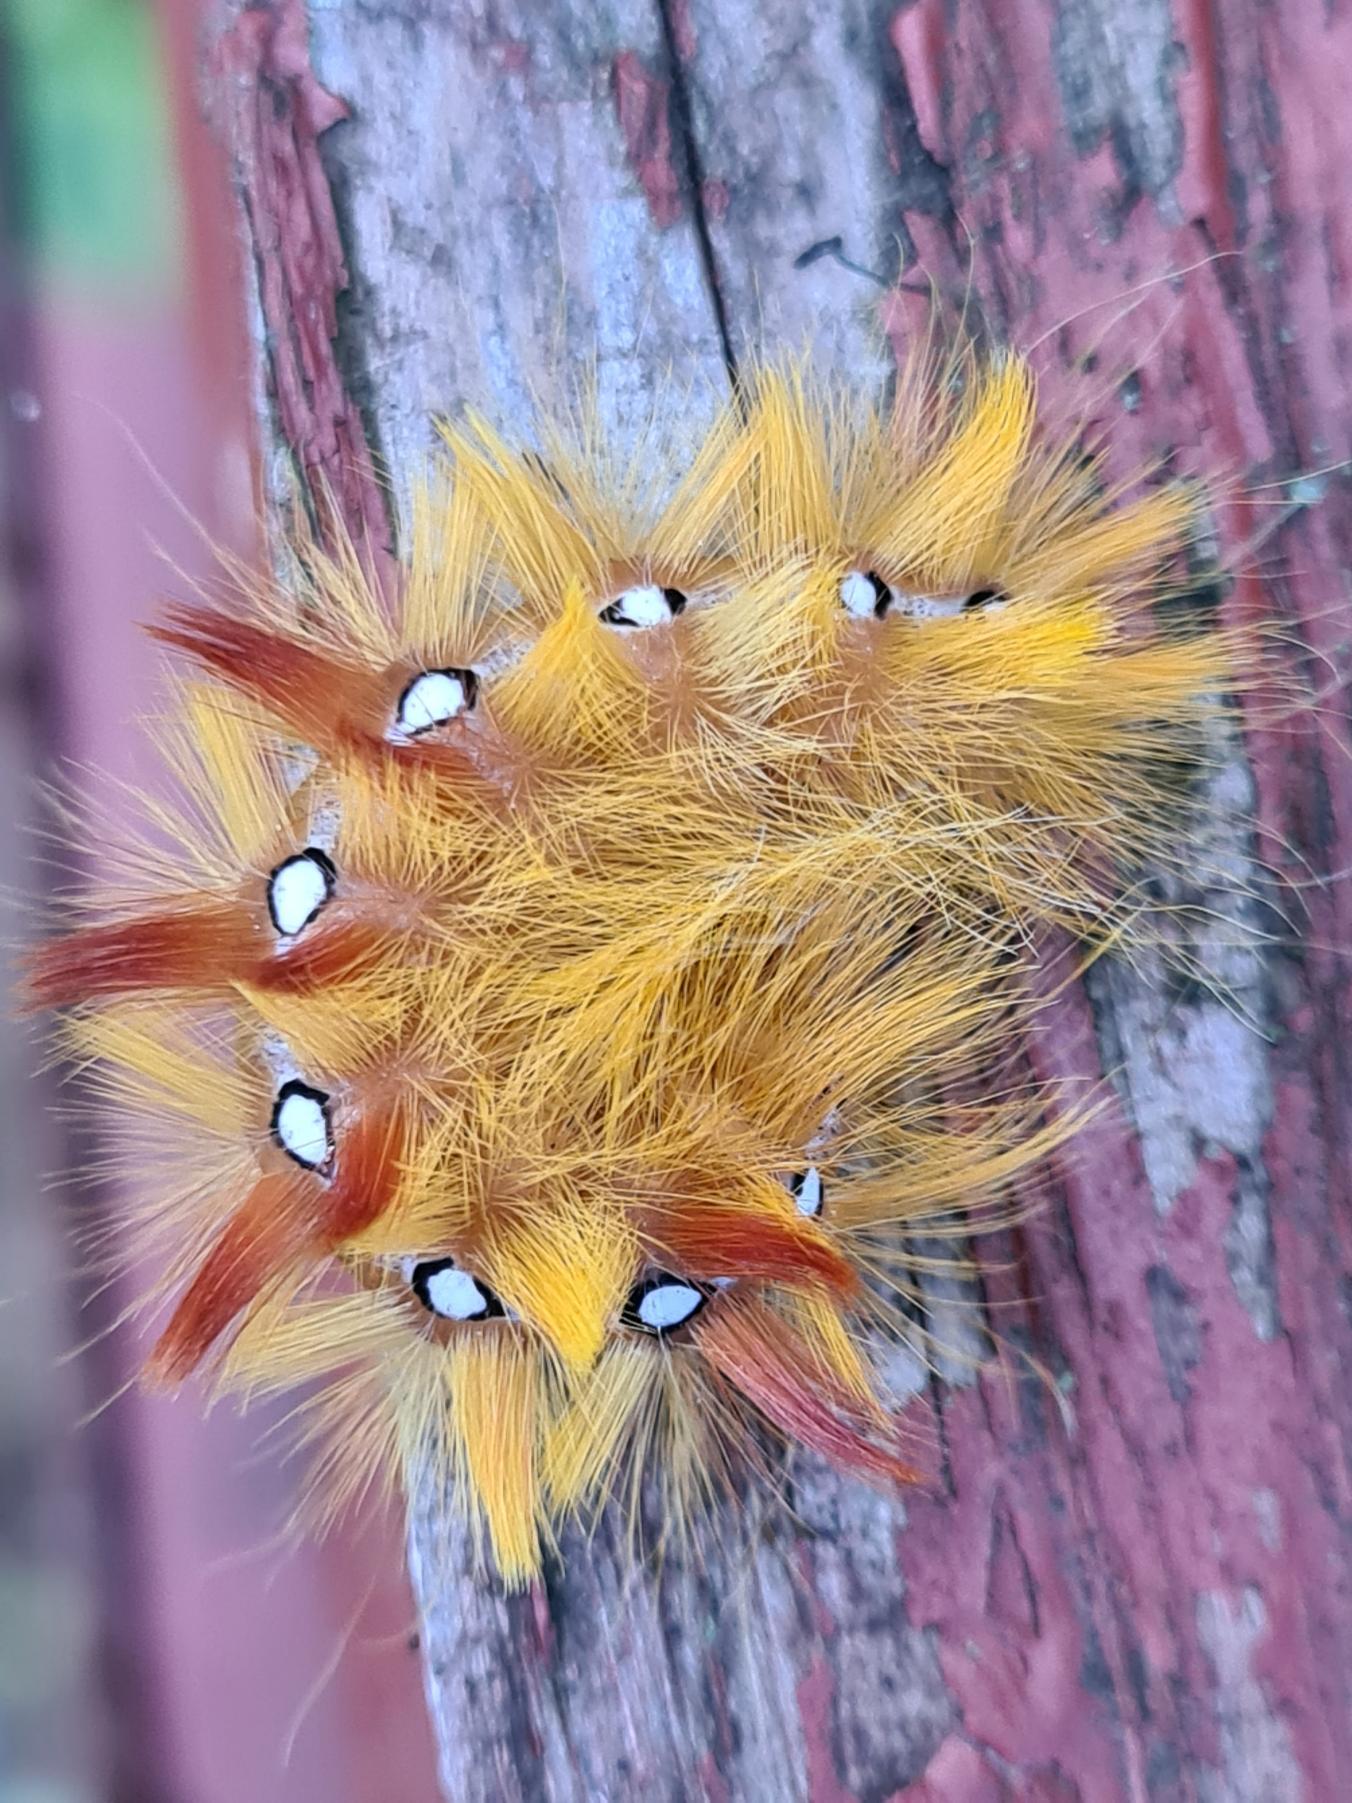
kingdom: Animalia
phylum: Arthropoda
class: Insecta
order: Lepidoptera
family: Noctuidae
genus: Acronicta
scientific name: Acronicta aceris
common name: Ahornugle
